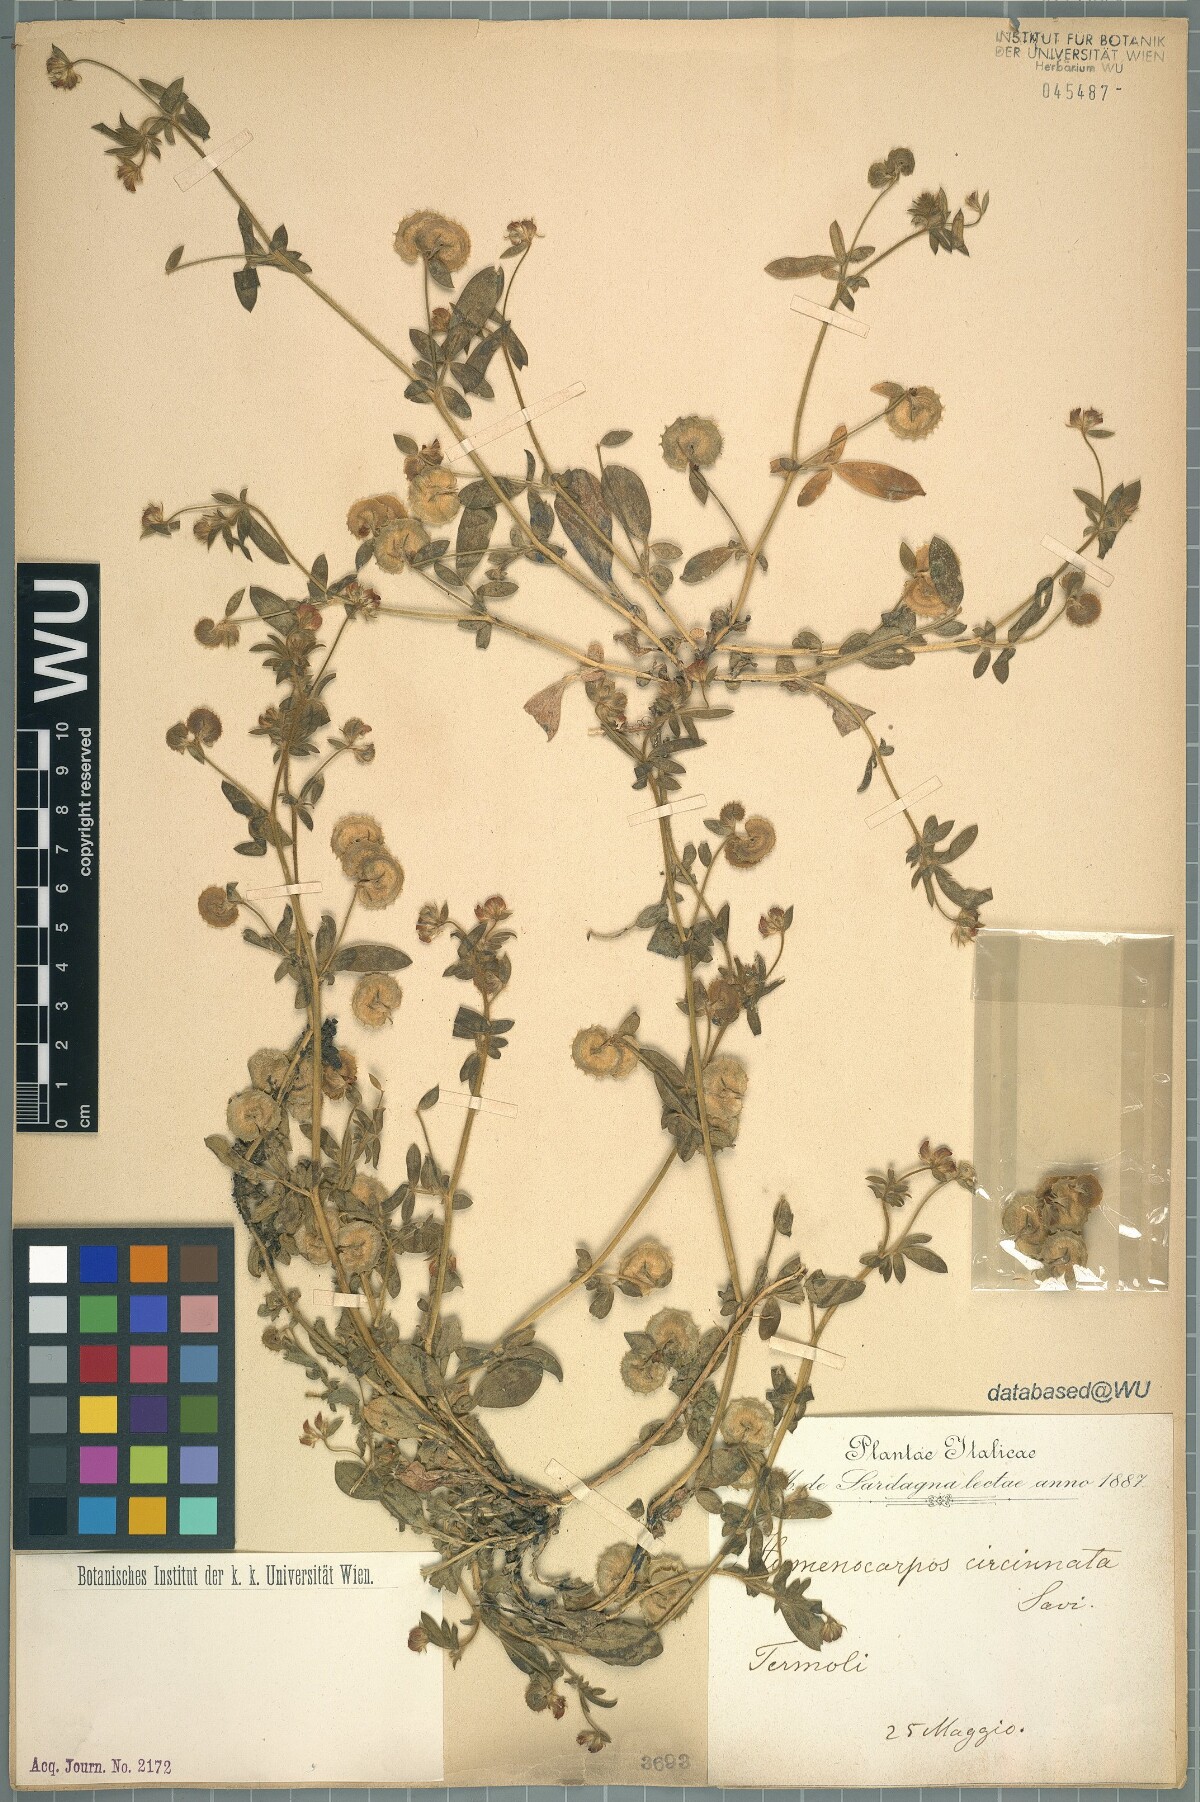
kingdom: Plantae
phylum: Tracheophyta
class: Magnoliopsida
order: Fabales
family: Fabaceae
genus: Anthyllis
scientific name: Anthyllis circinnata
